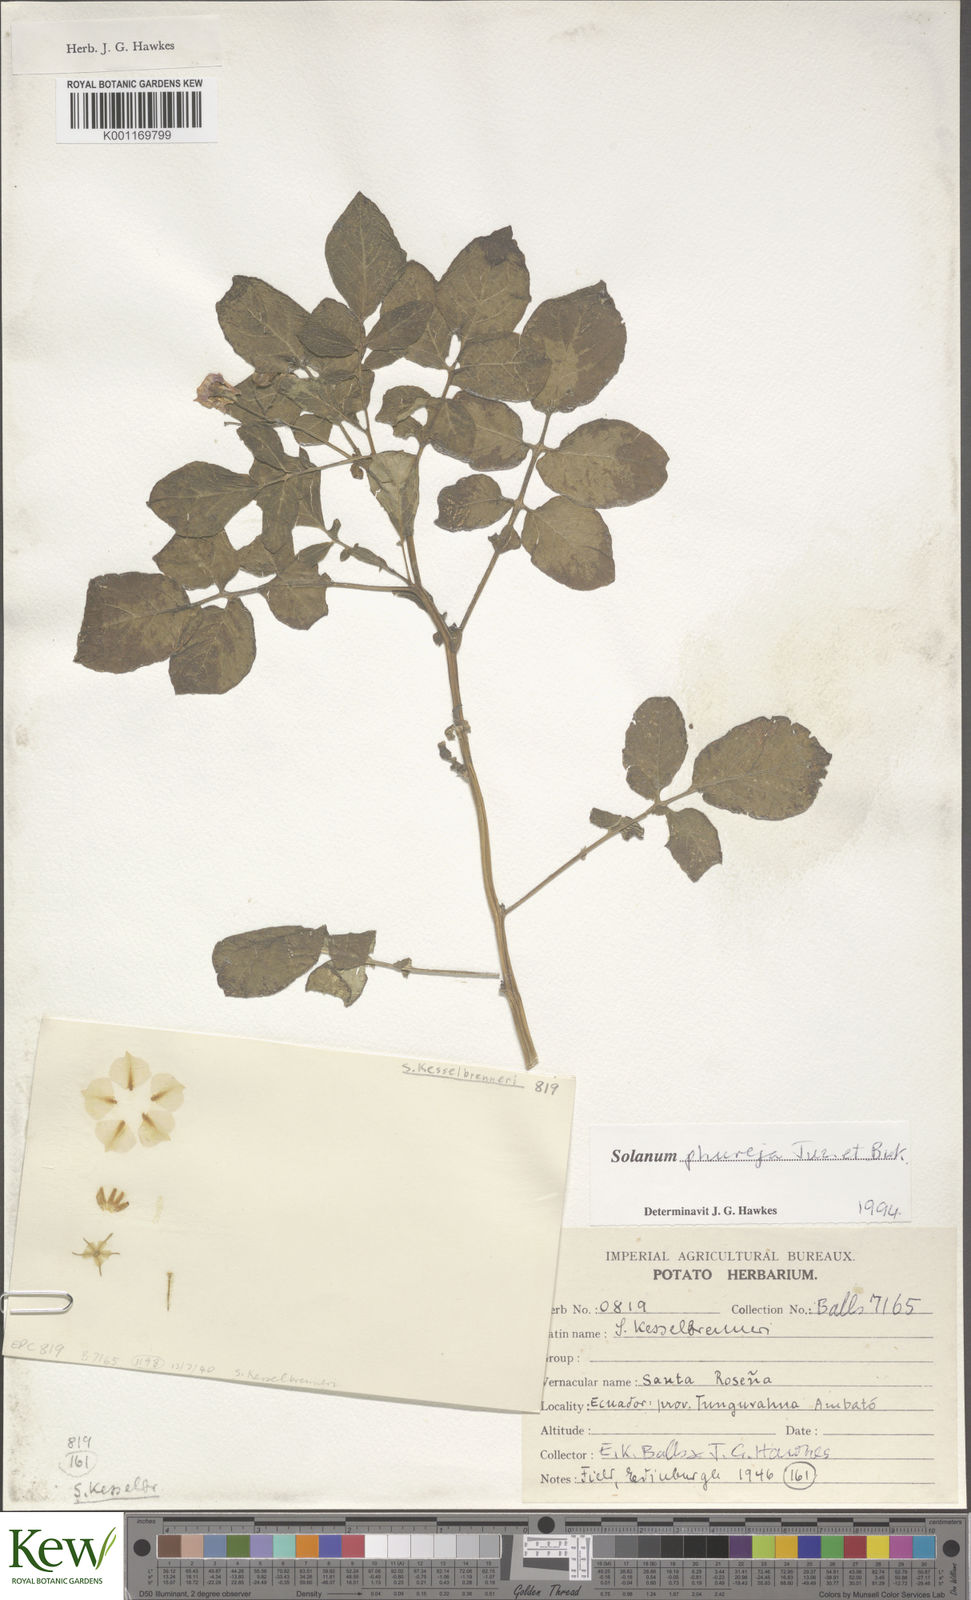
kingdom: Plantae
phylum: Tracheophyta
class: Magnoliopsida
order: Solanales
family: Solanaceae
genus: Solanum
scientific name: Solanum tuberosum
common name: Potato
